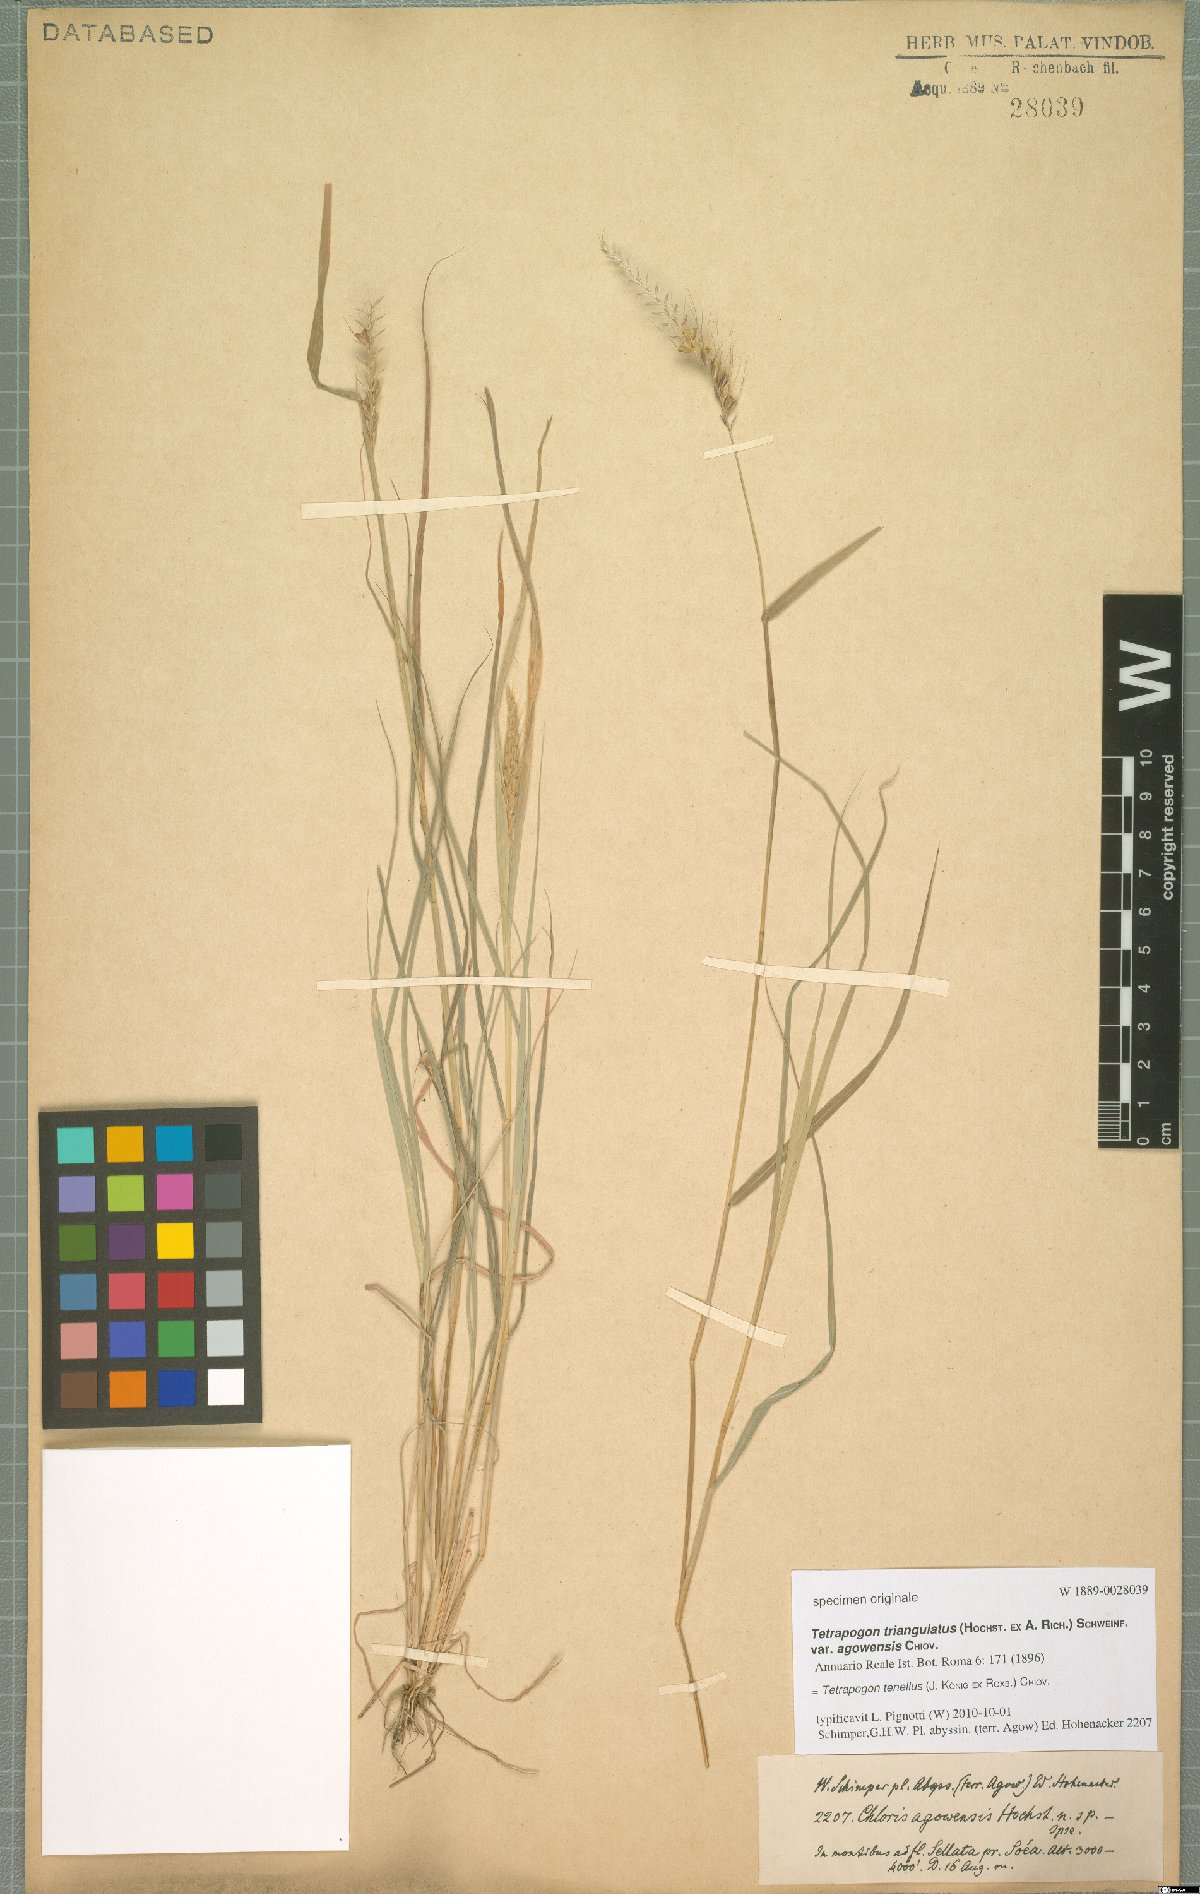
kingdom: Plantae
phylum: Tracheophyta
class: Liliopsida
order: Poales
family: Poaceae
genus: Tetrapogon
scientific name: Tetrapogon tenellus
